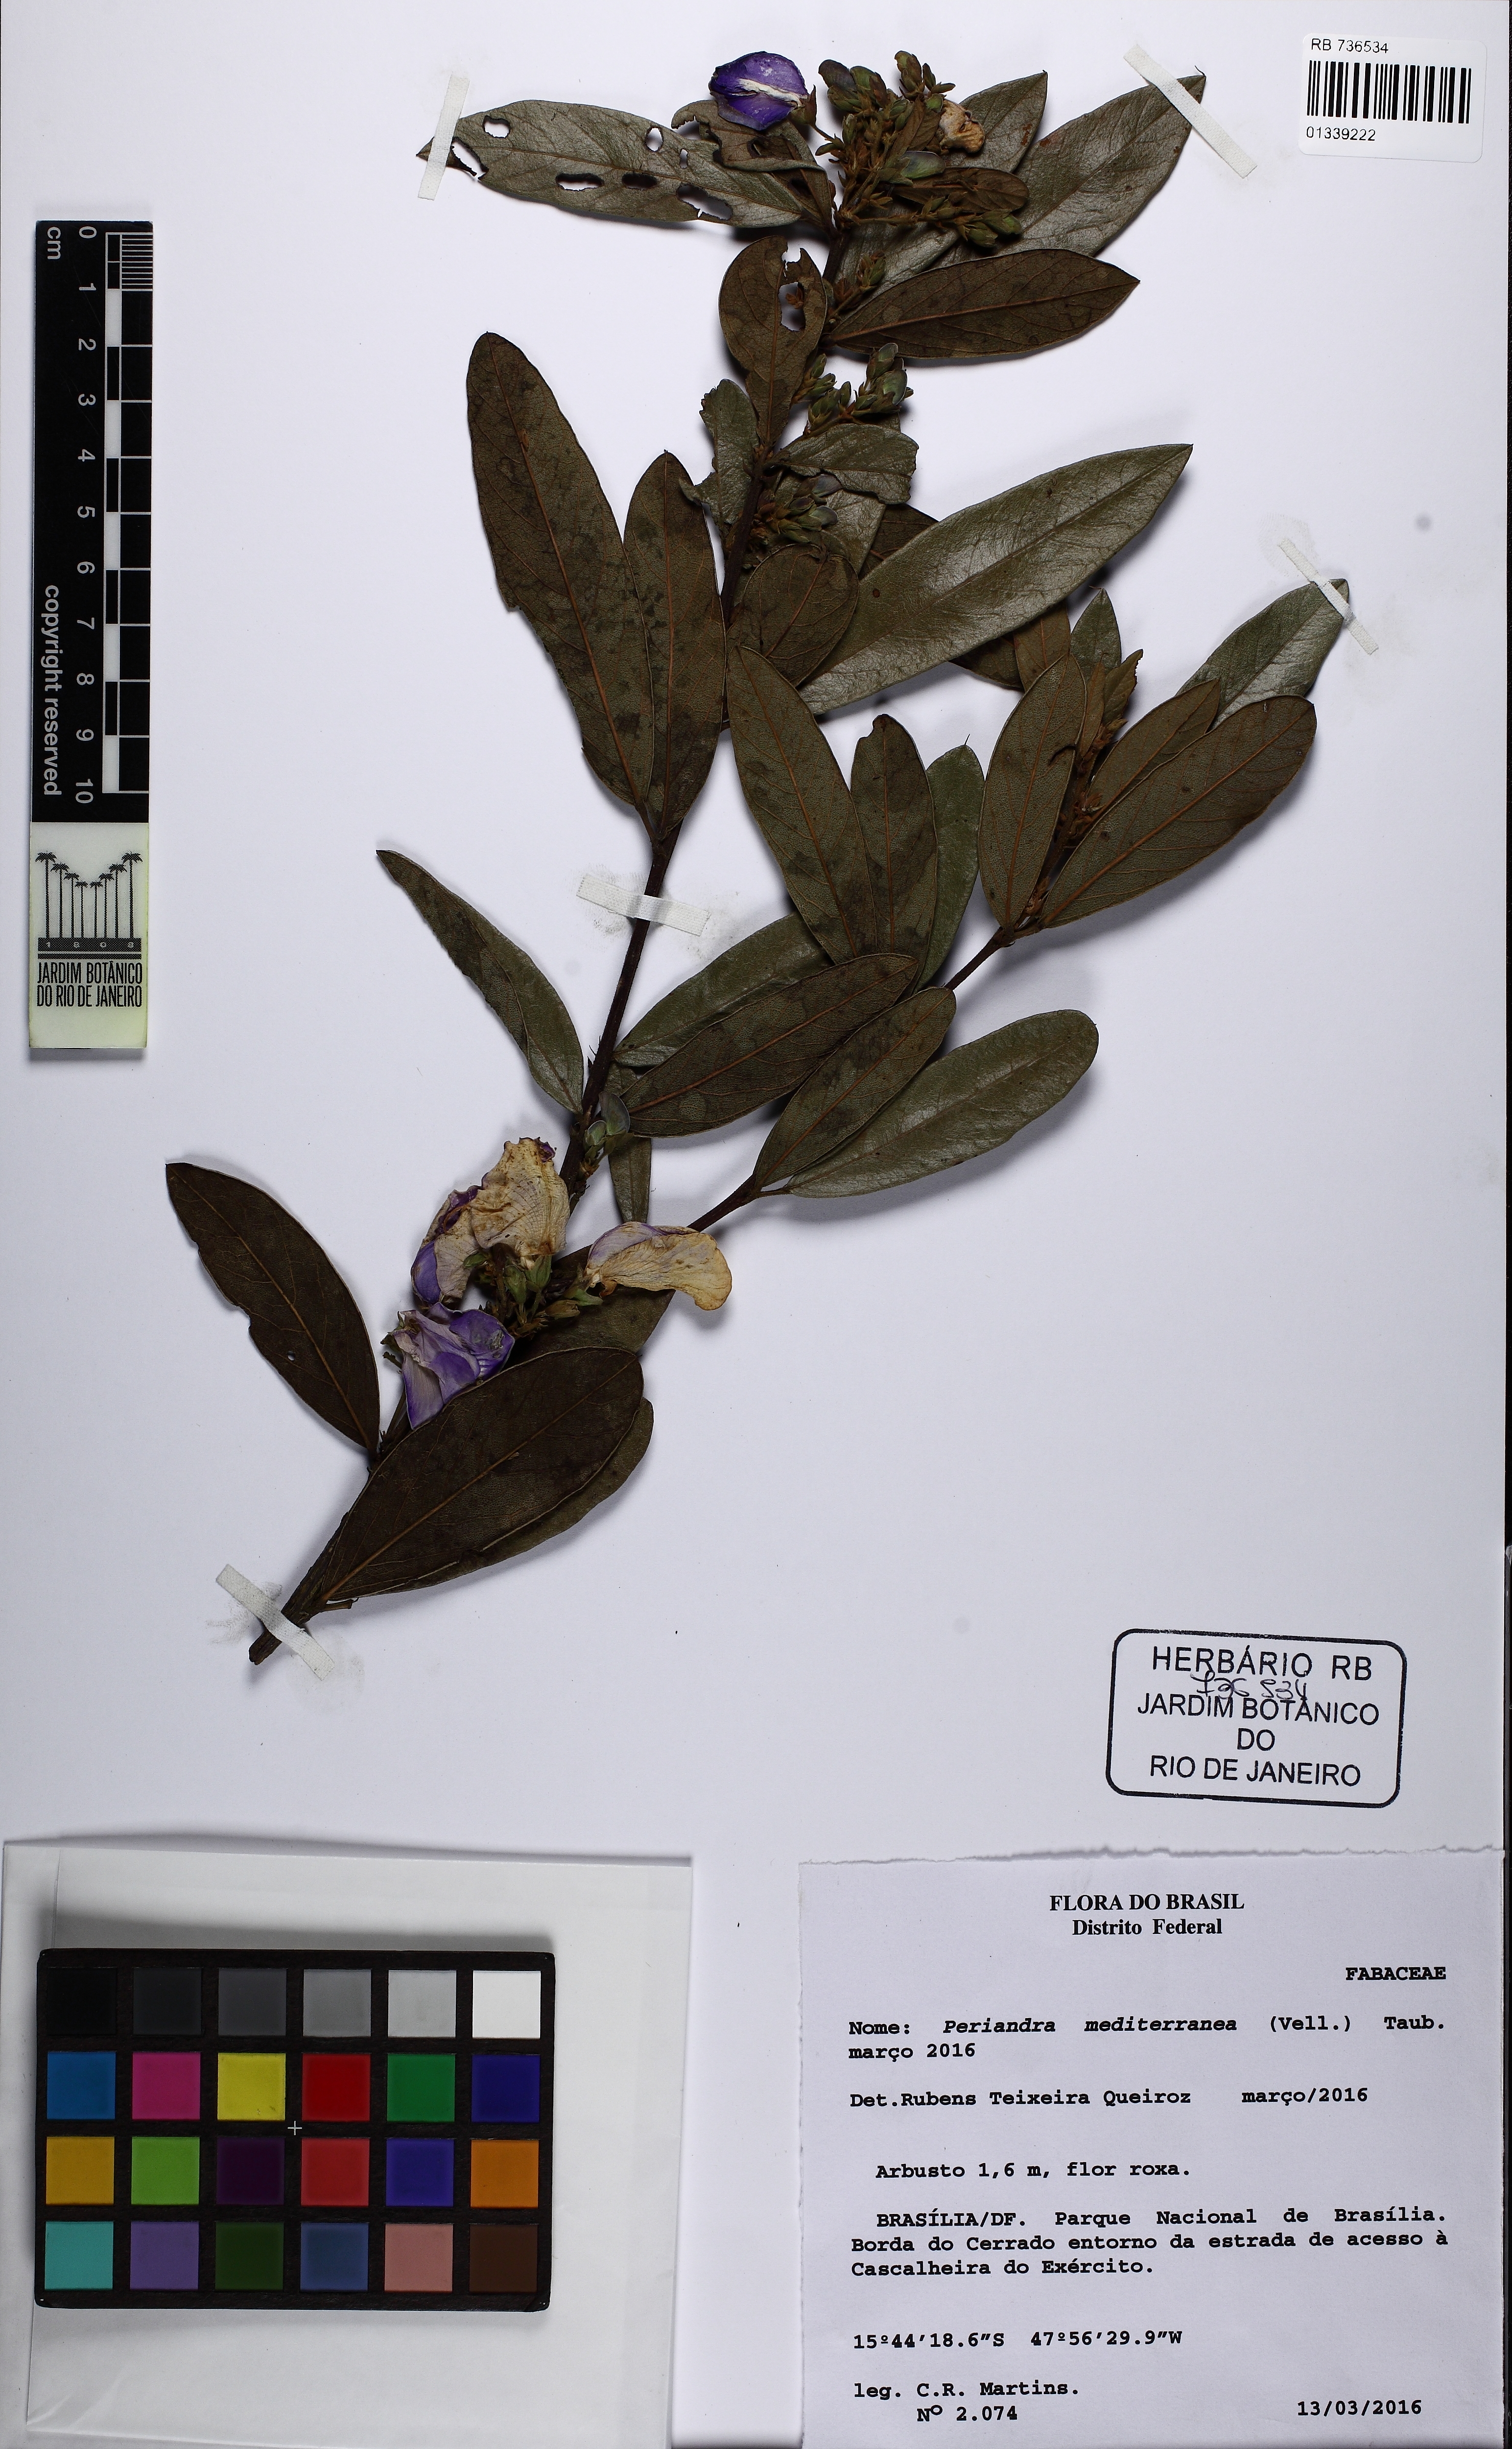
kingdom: Plantae
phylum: Tracheophyta
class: Magnoliopsida
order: Fabales
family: Fabaceae
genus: Periandra
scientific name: Periandra mediterranea
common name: Brazilian licorice
